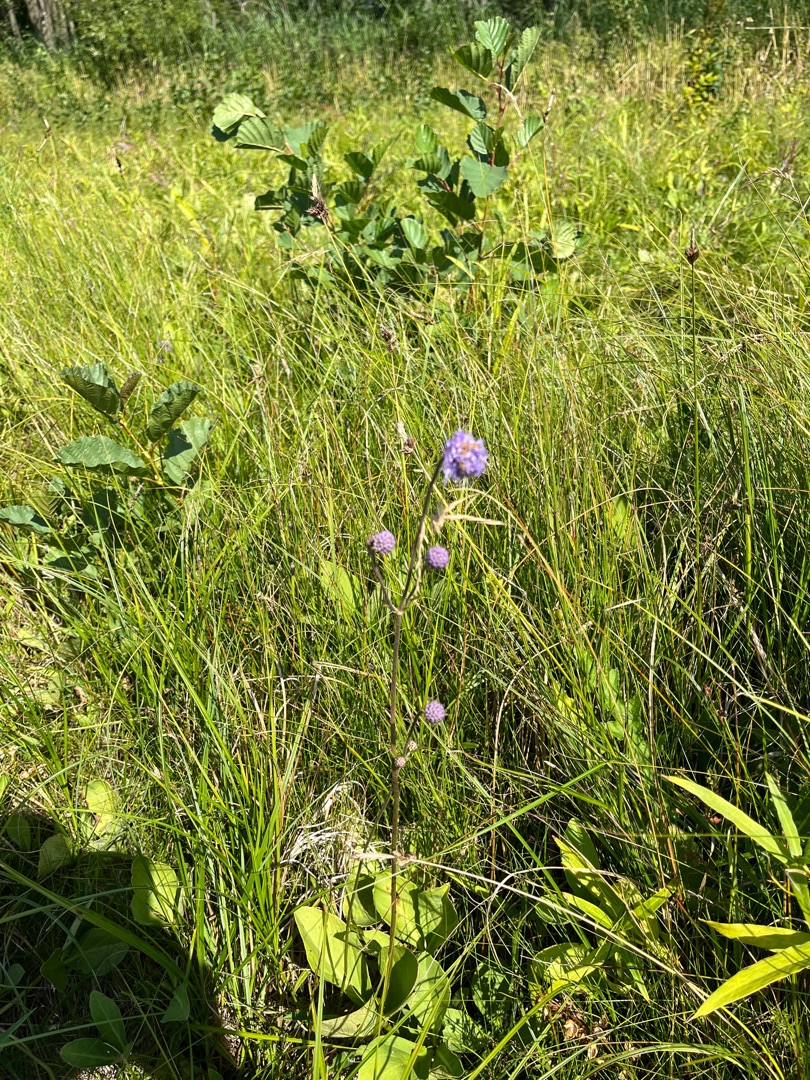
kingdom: Plantae
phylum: Tracheophyta
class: Magnoliopsida
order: Dipsacales
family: Caprifoliaceae
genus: Succisa
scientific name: Succisa pratensis
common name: Djævelsbid
